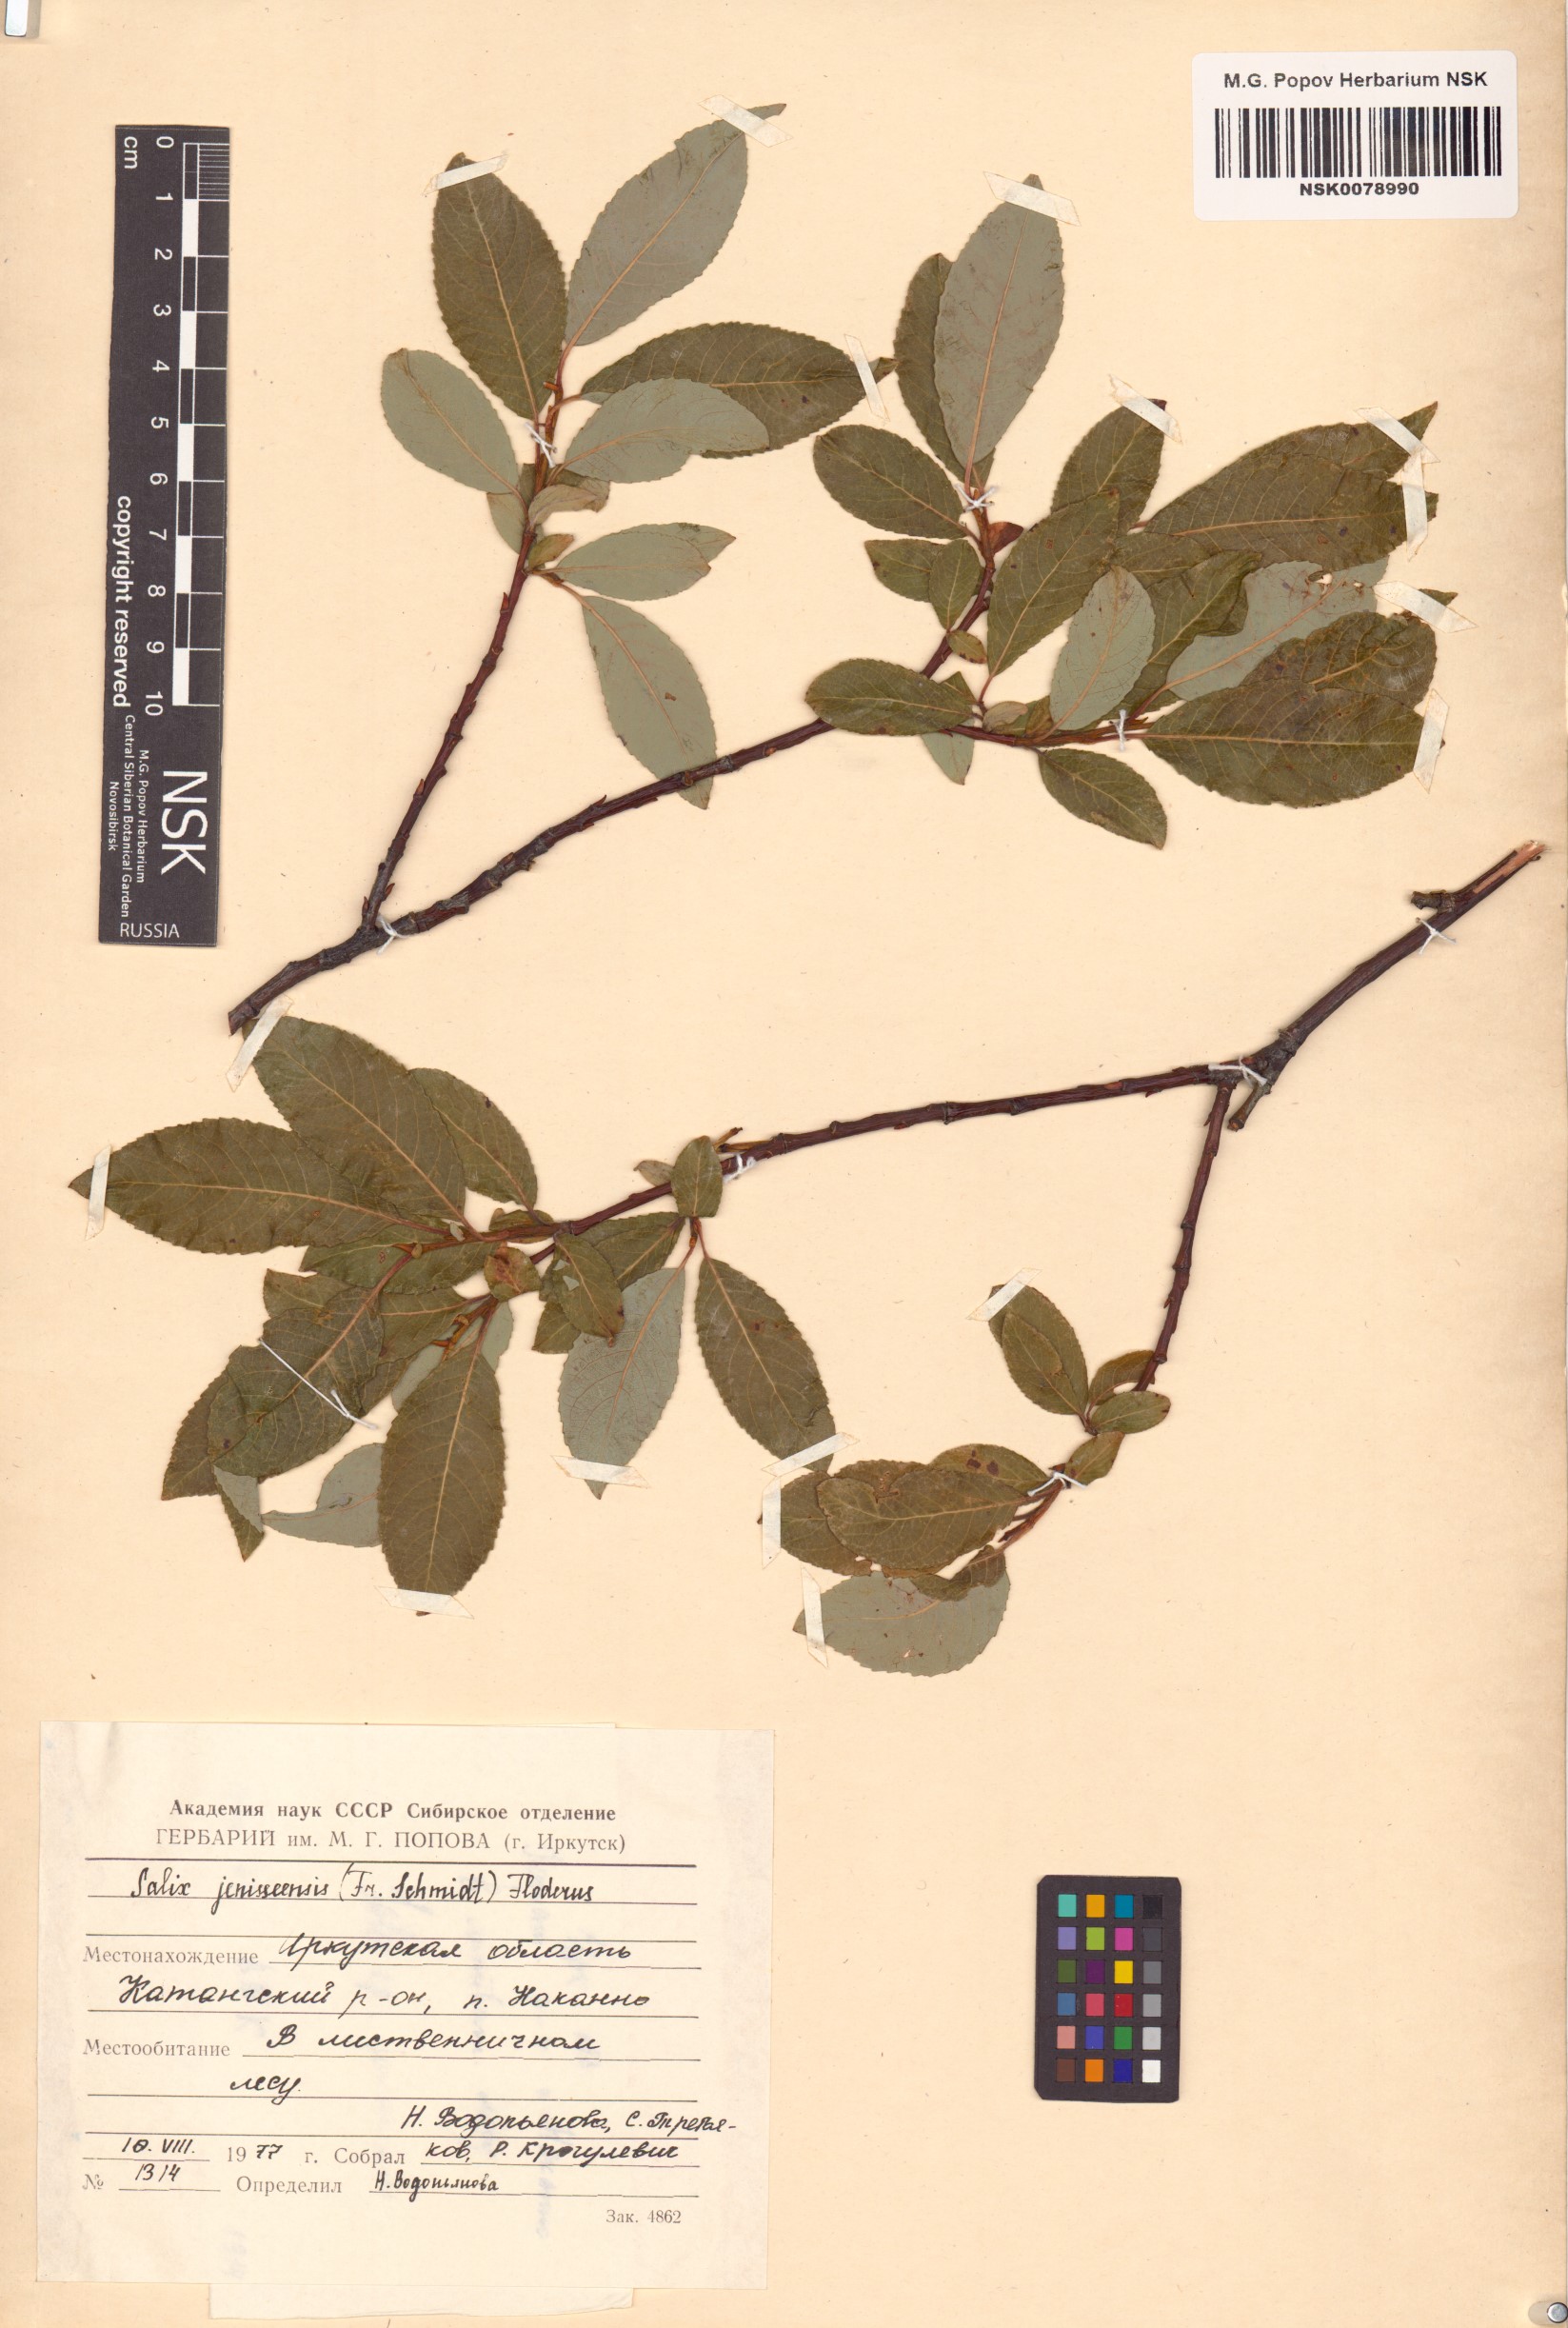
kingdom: Plantae
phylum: Tracheophyta
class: Magnoliopsida
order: Malpighiales
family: Salicaceae
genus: Salix
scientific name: Salix jenisseensis
